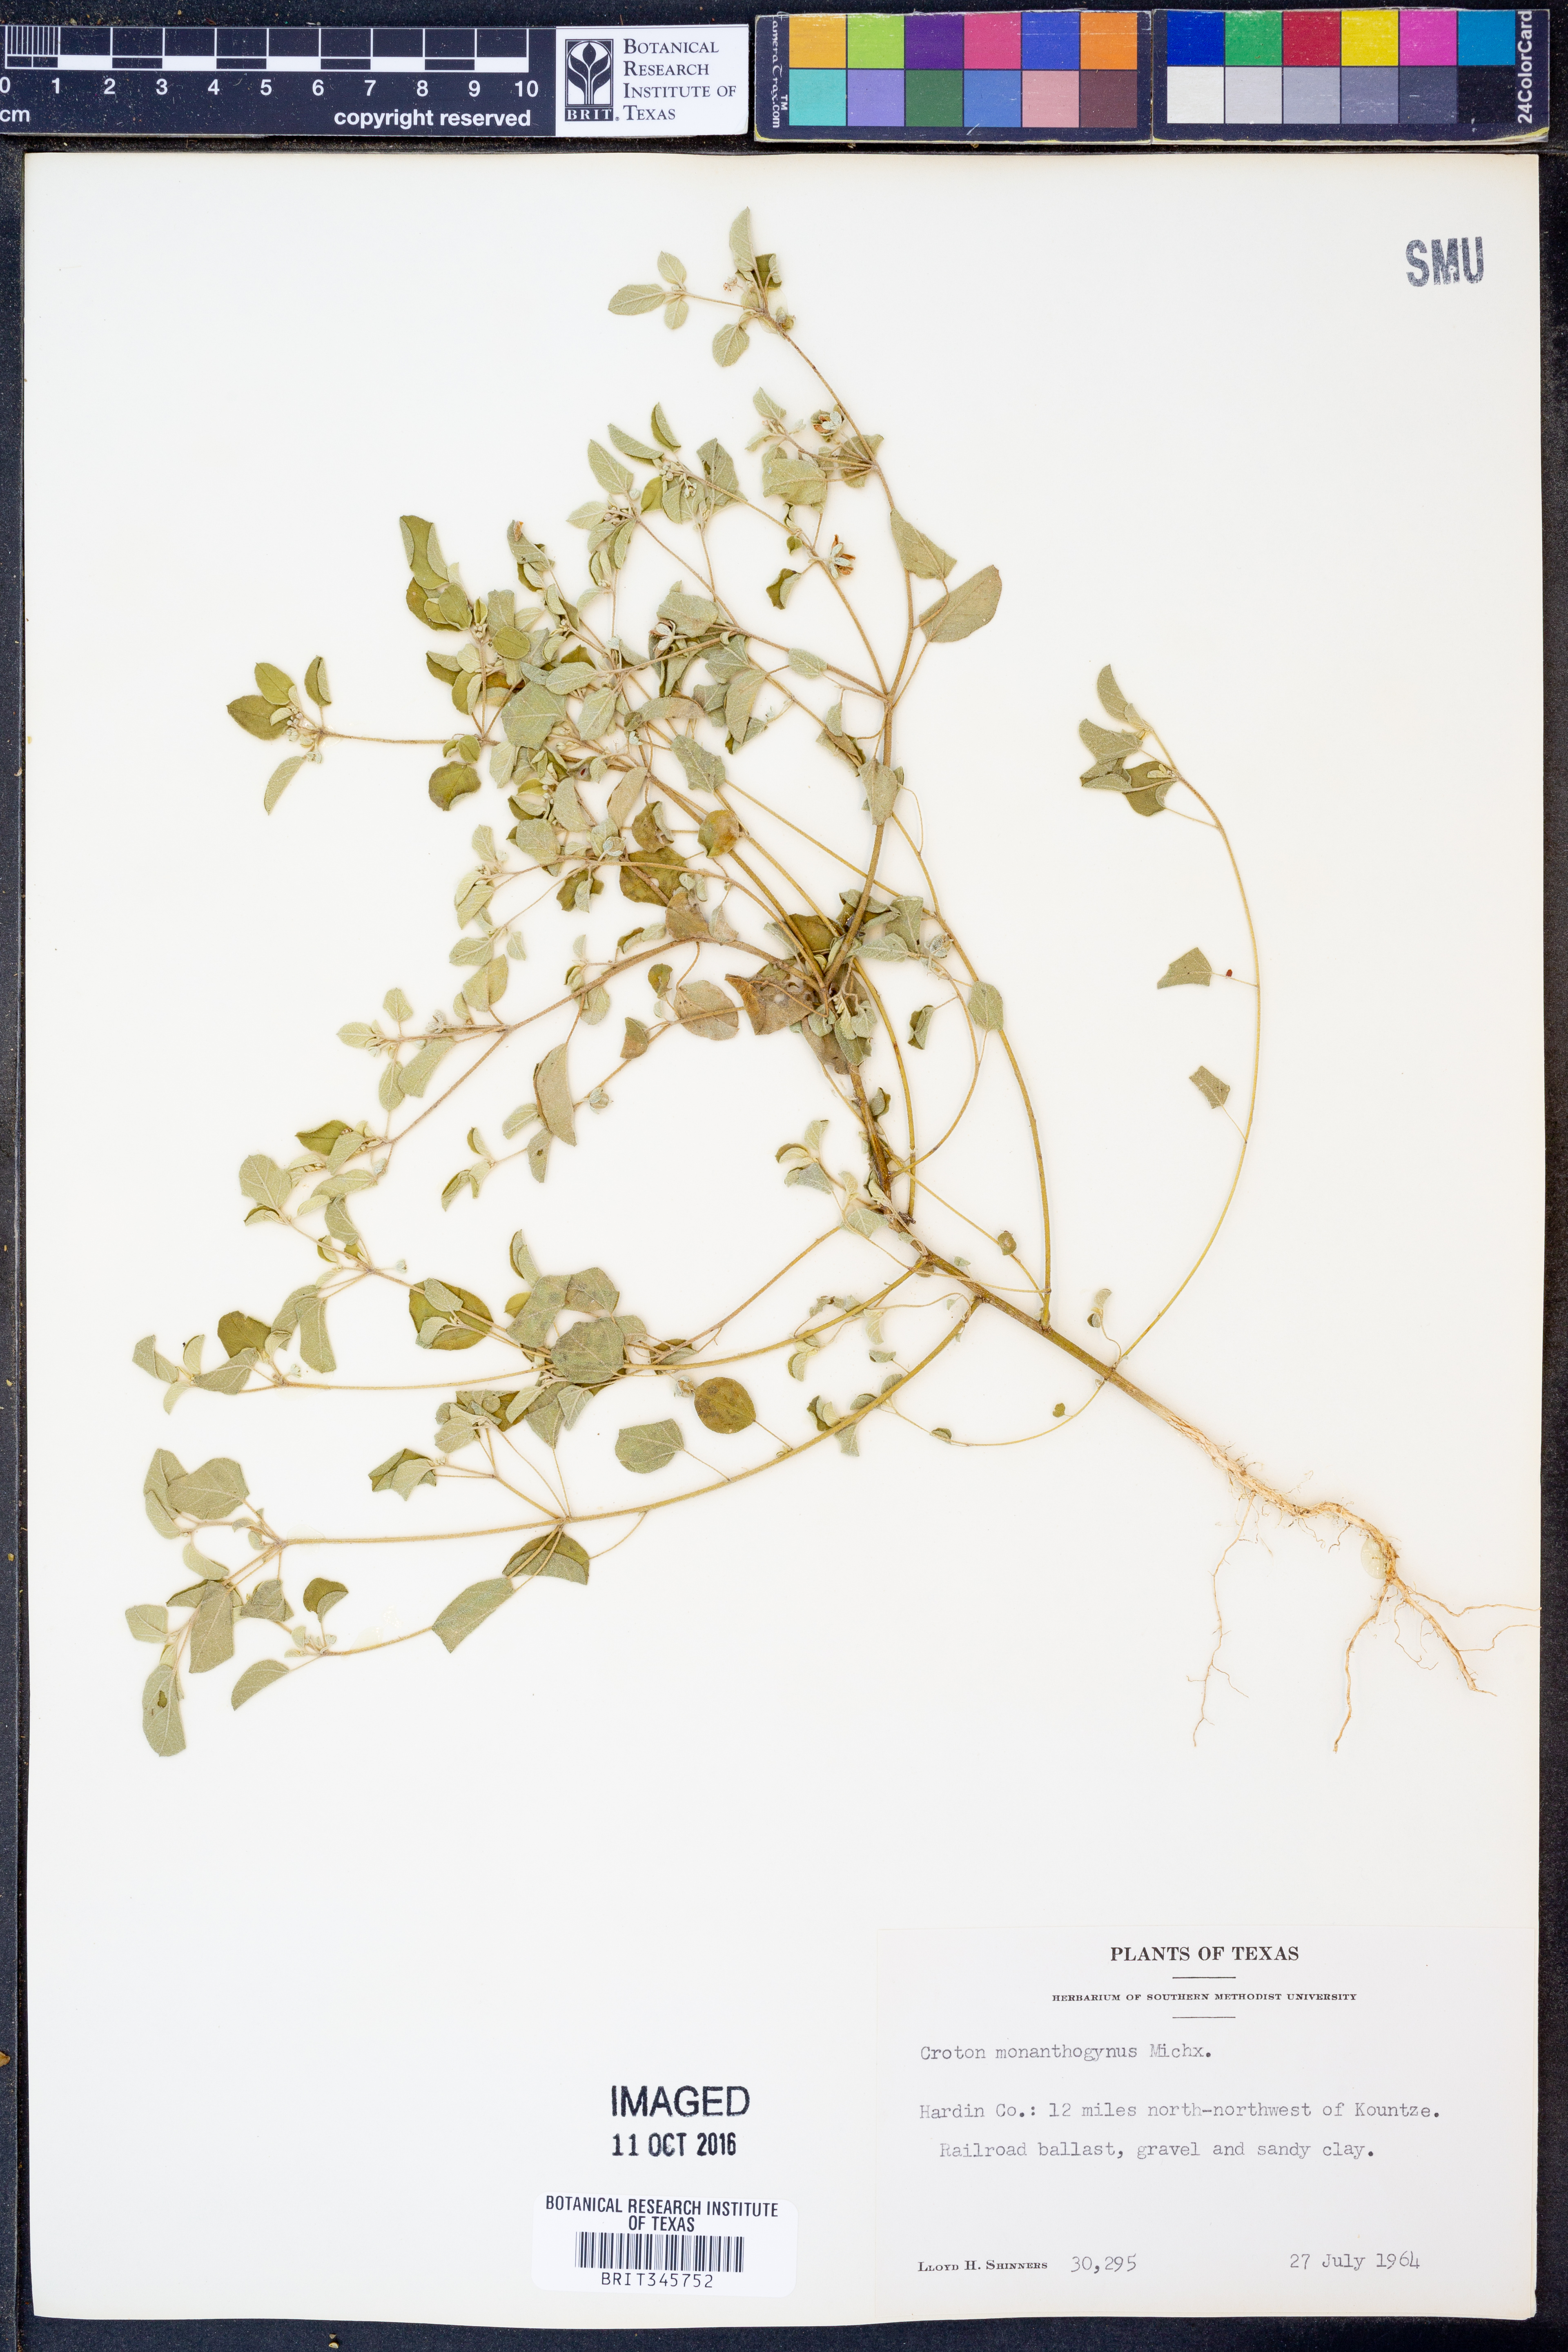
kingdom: Plantae
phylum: Tracheophyta
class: Magnoliopsida
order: Malpighiales
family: Euphorbiaceae
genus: Croton
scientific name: Croton monanthogynus
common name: One-seed croton
